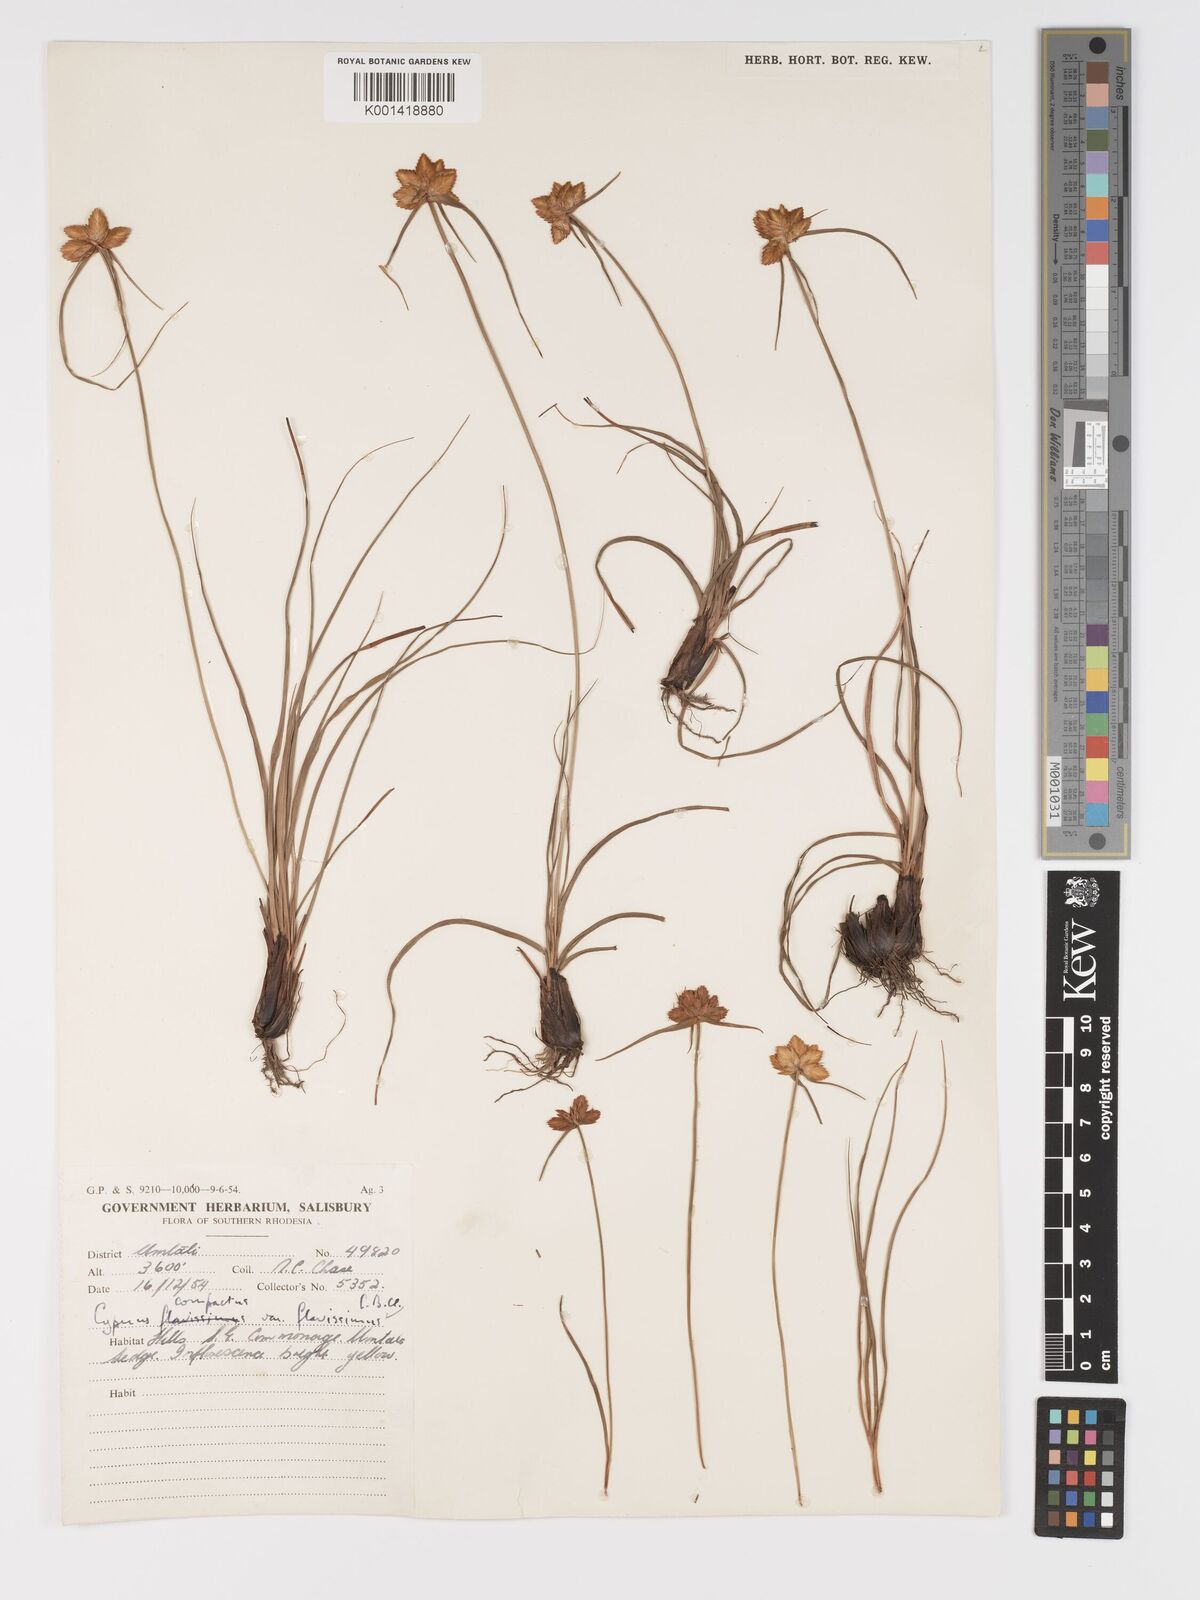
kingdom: Plantae
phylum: Tracheophyta
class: Liliopsida
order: Poales
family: Cyperaceae
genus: Cyperus
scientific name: Cyperus sphaerocephalus
